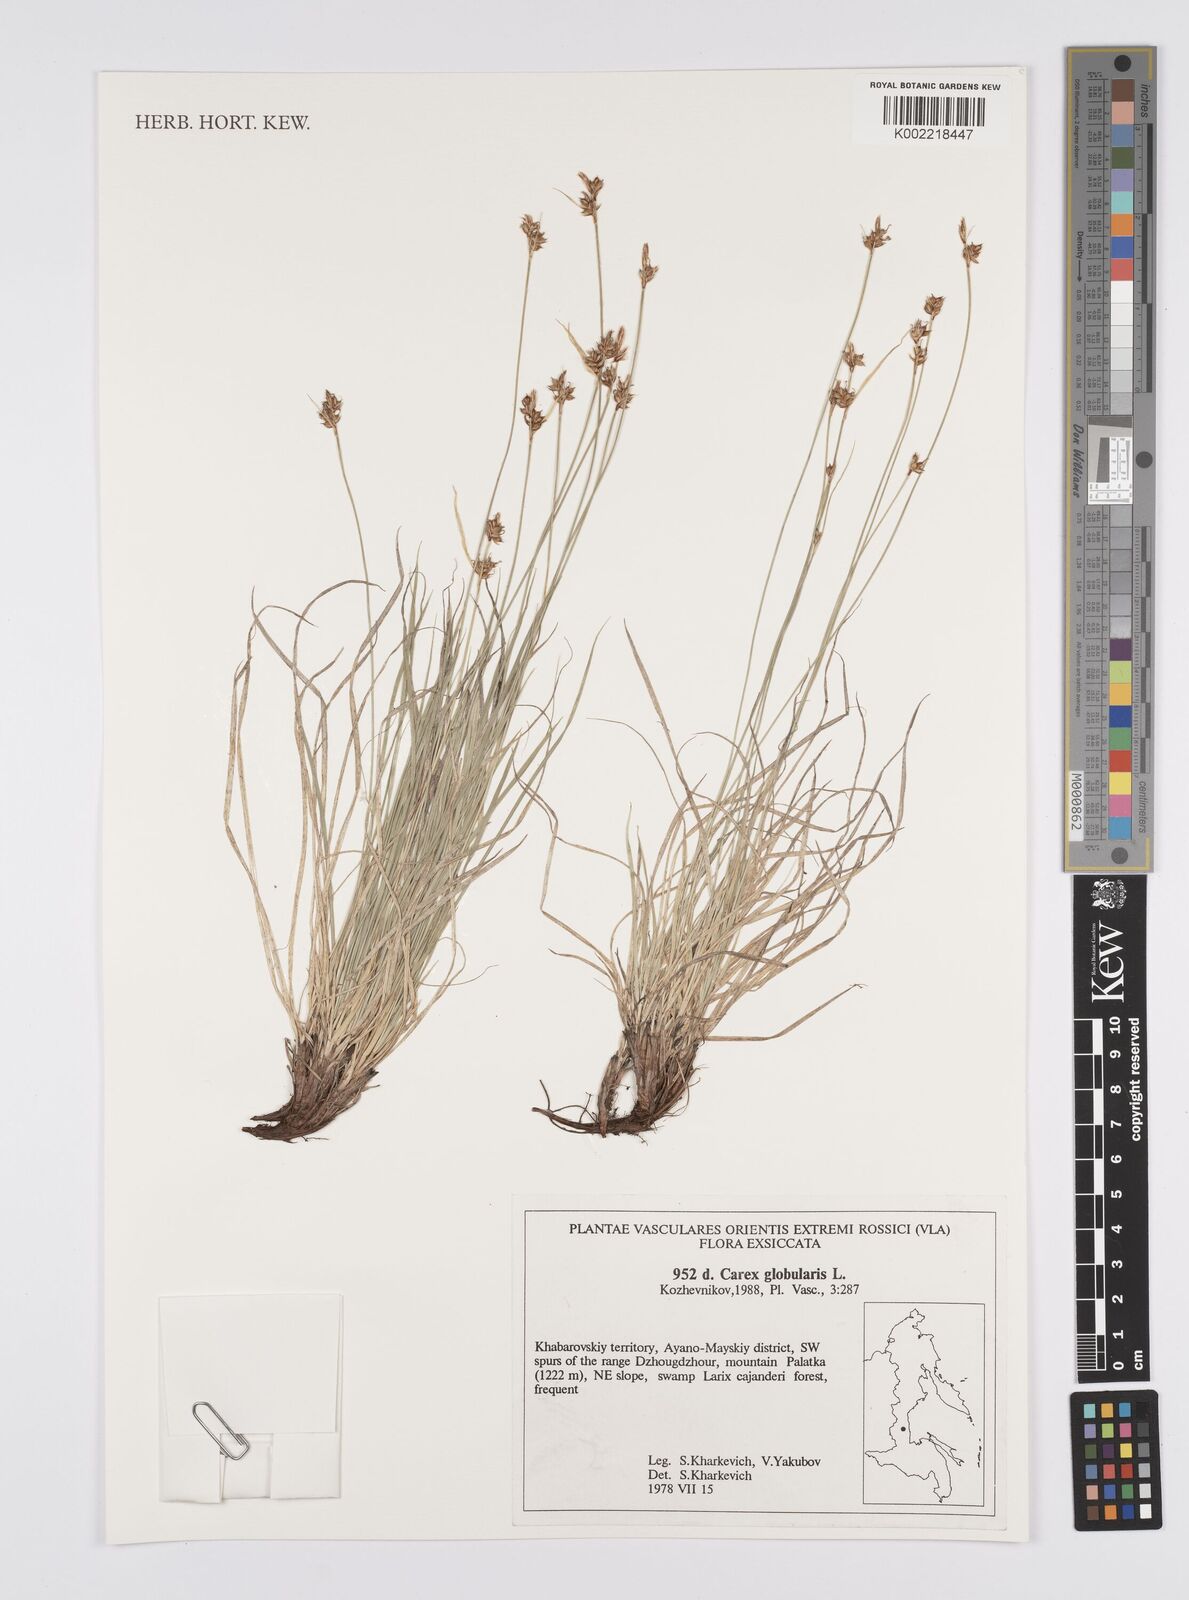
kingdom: Plantae
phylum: Tracheophyta
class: Liliopsida
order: Poales
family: Cyperaceae
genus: Carex
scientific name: Carex globularis
